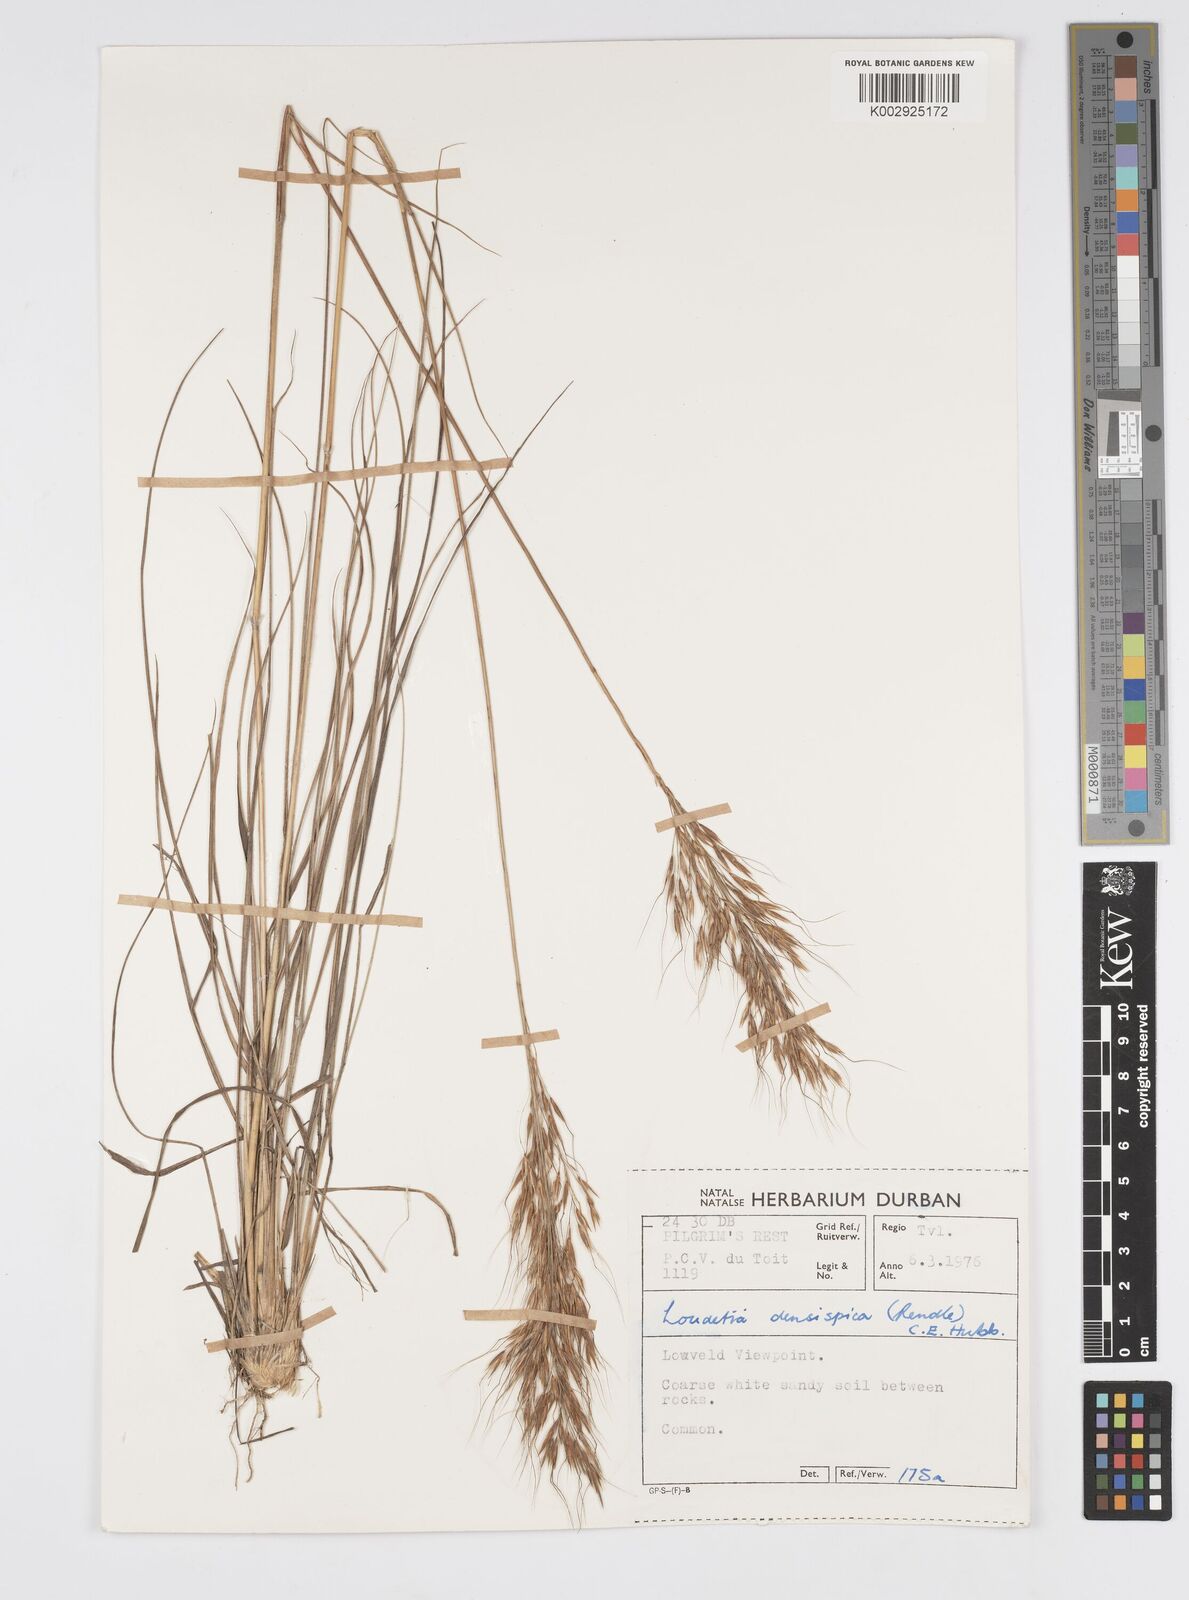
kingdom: Plantae
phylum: Tracheophyta
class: Liliopsida
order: Poales
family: Poaceae
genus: Loudetia
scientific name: Loudetia simplex
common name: Common russet grass
